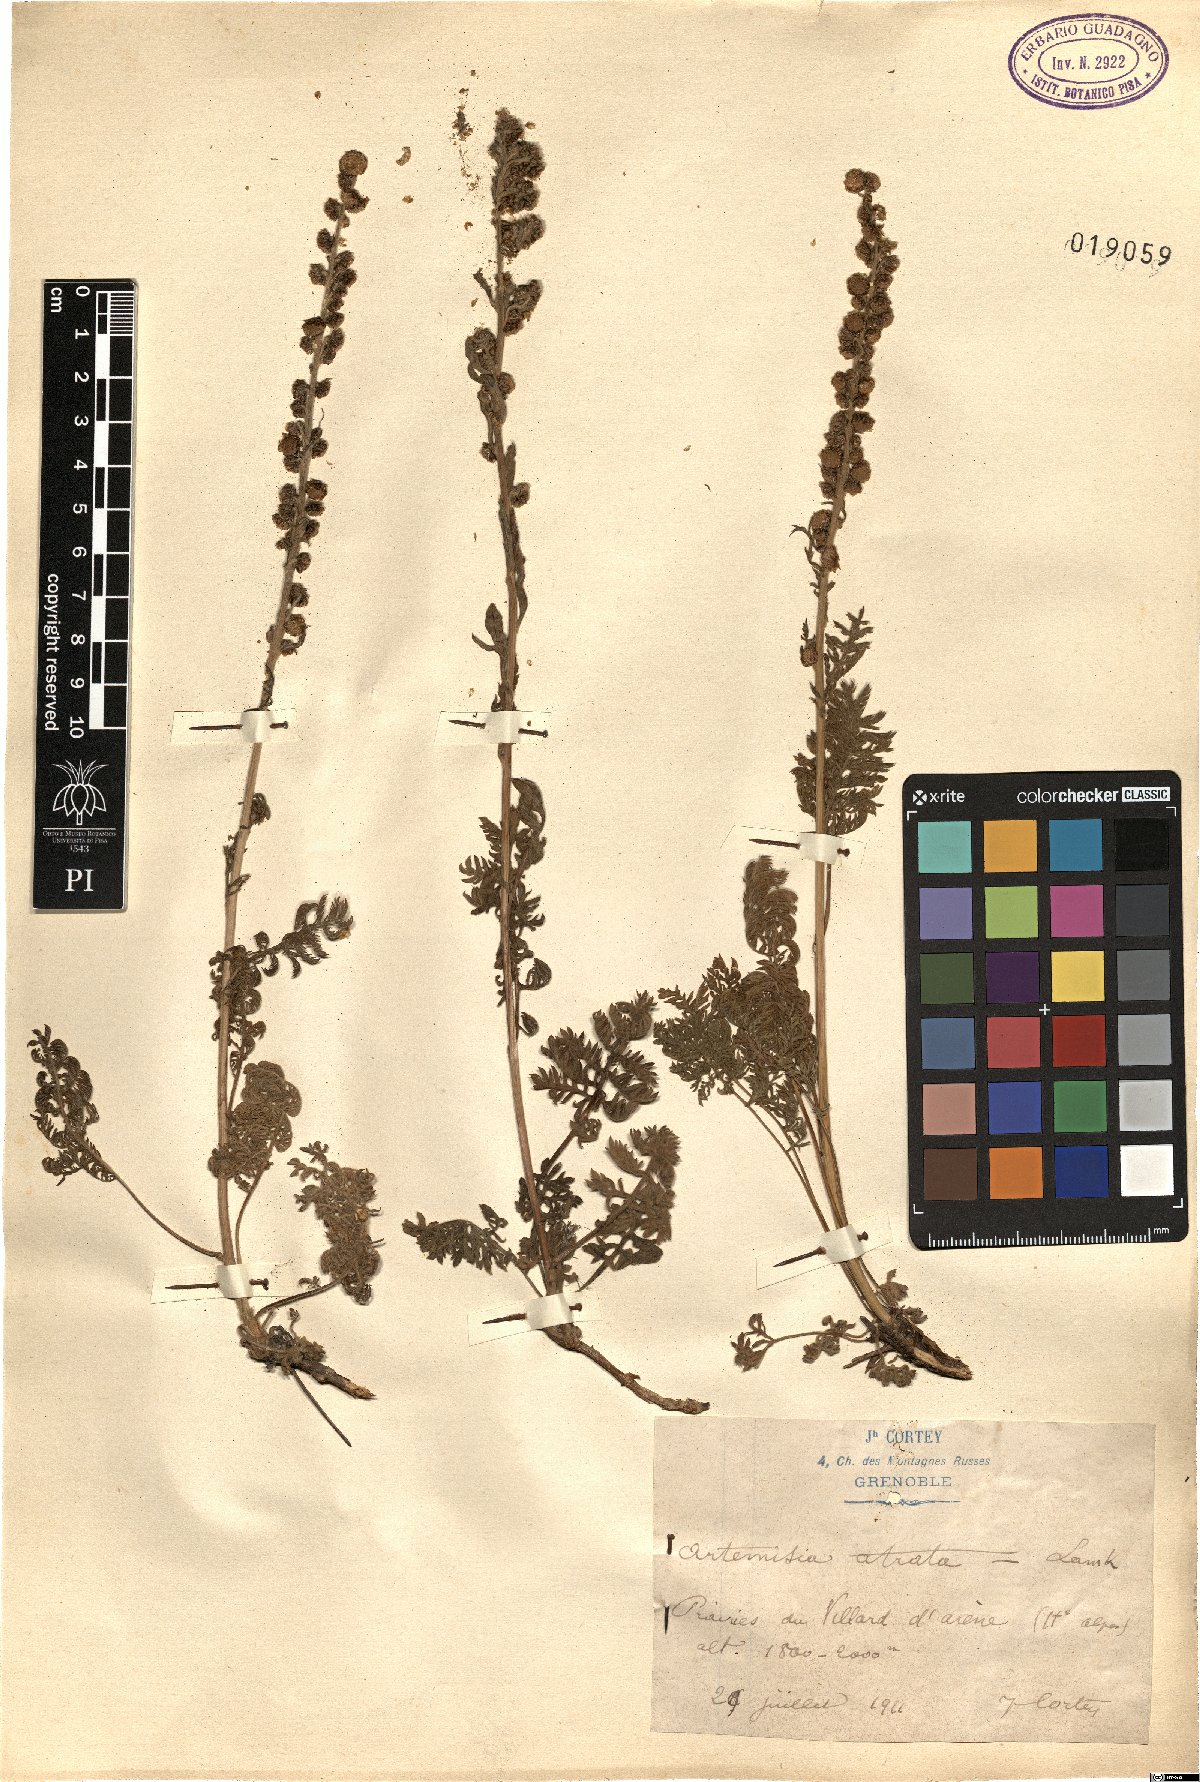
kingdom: Plantae
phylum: Tracheophyta
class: Magnoliopsida
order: Asterales
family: Asteraceae
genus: Artemisia
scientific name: Artemisia atrata
